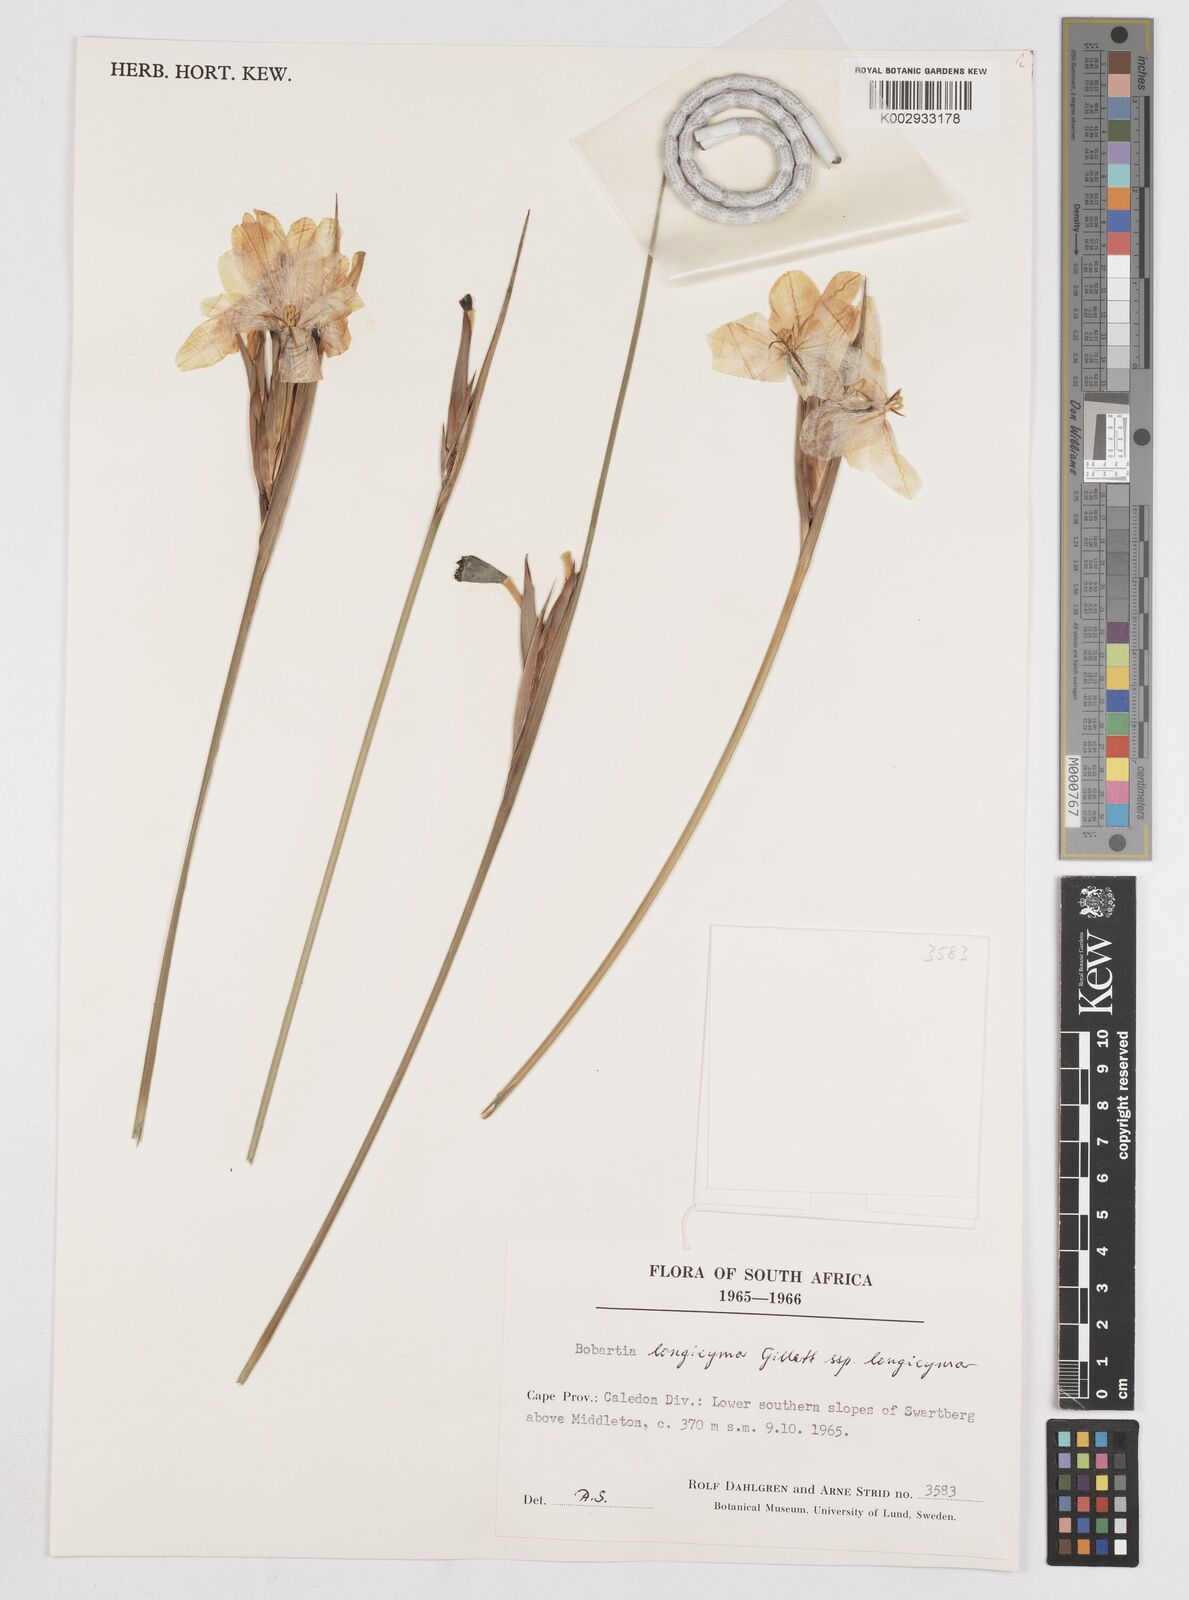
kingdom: Plantae
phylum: Tracheophyta
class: Liliopsida
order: Asparagales
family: Iridaceae
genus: Bobartia
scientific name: Bobartia longicyma
